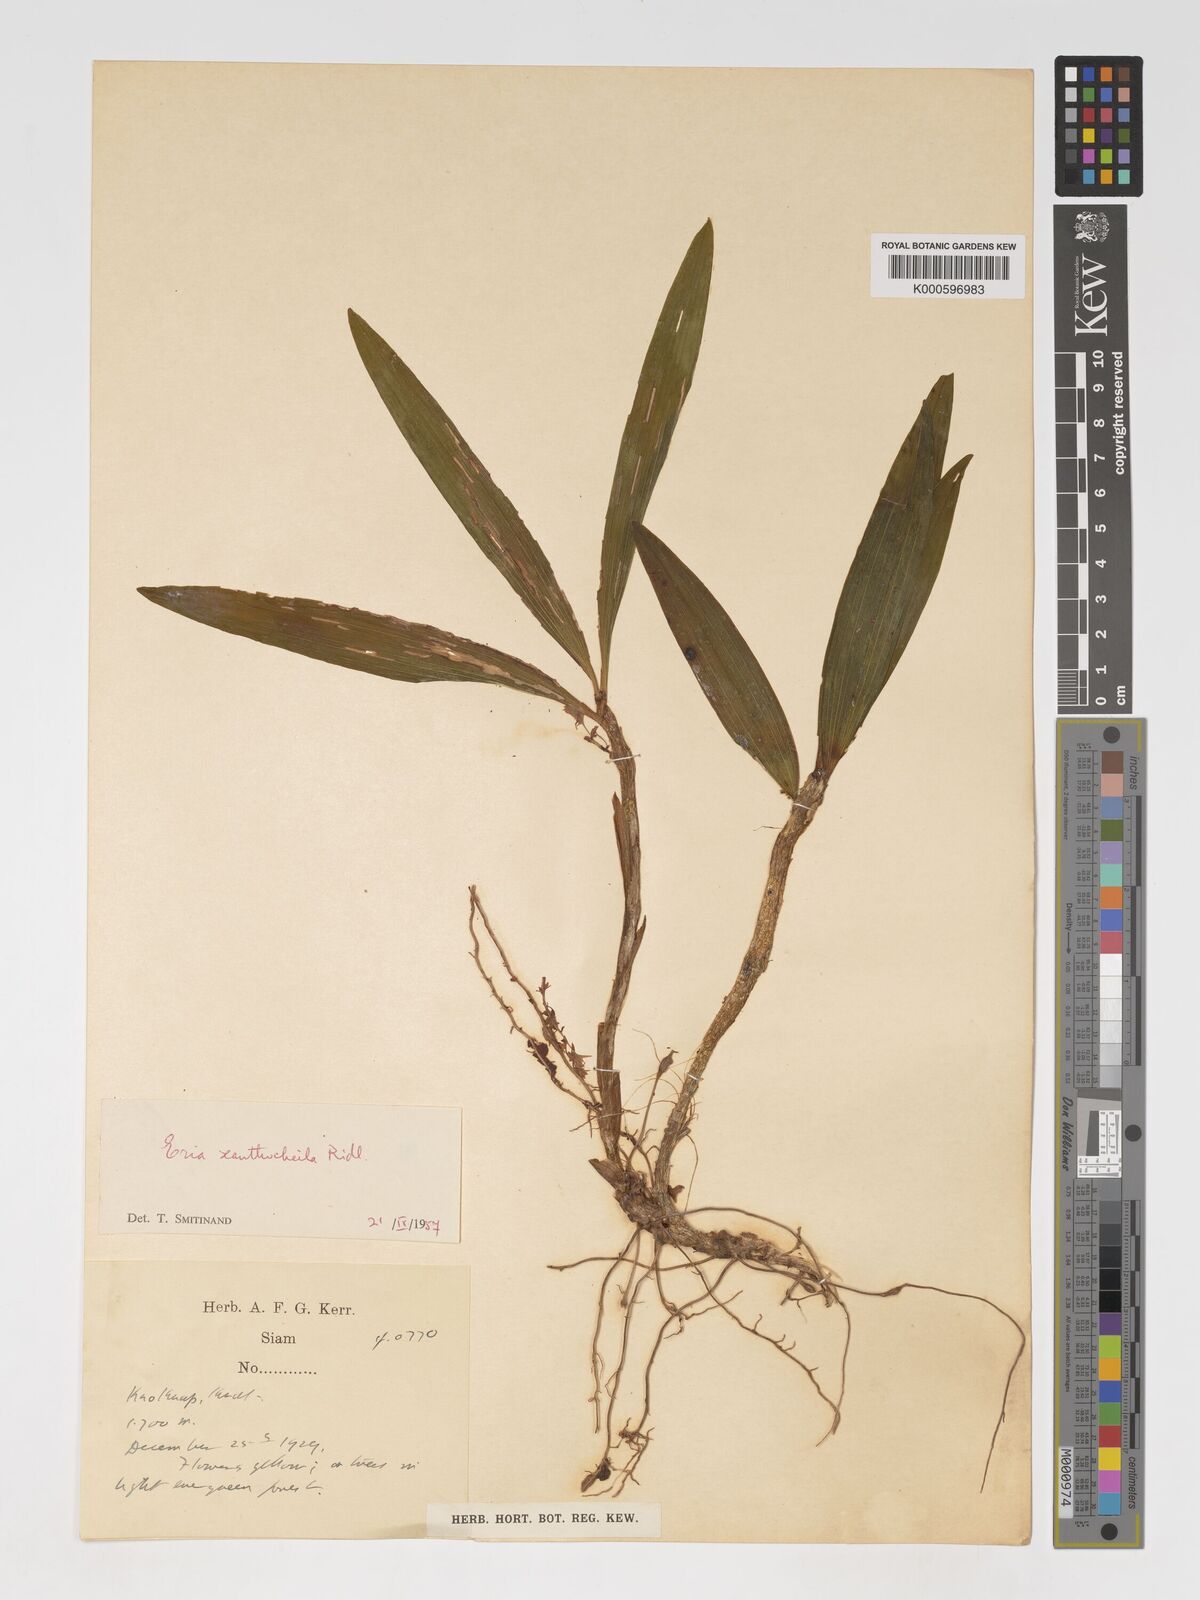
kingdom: Plantae
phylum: Tracheophyta
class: Liliopsida
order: Asparagales
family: Orchidaceae
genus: Pinalia
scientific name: Pinalia xanthocheila
